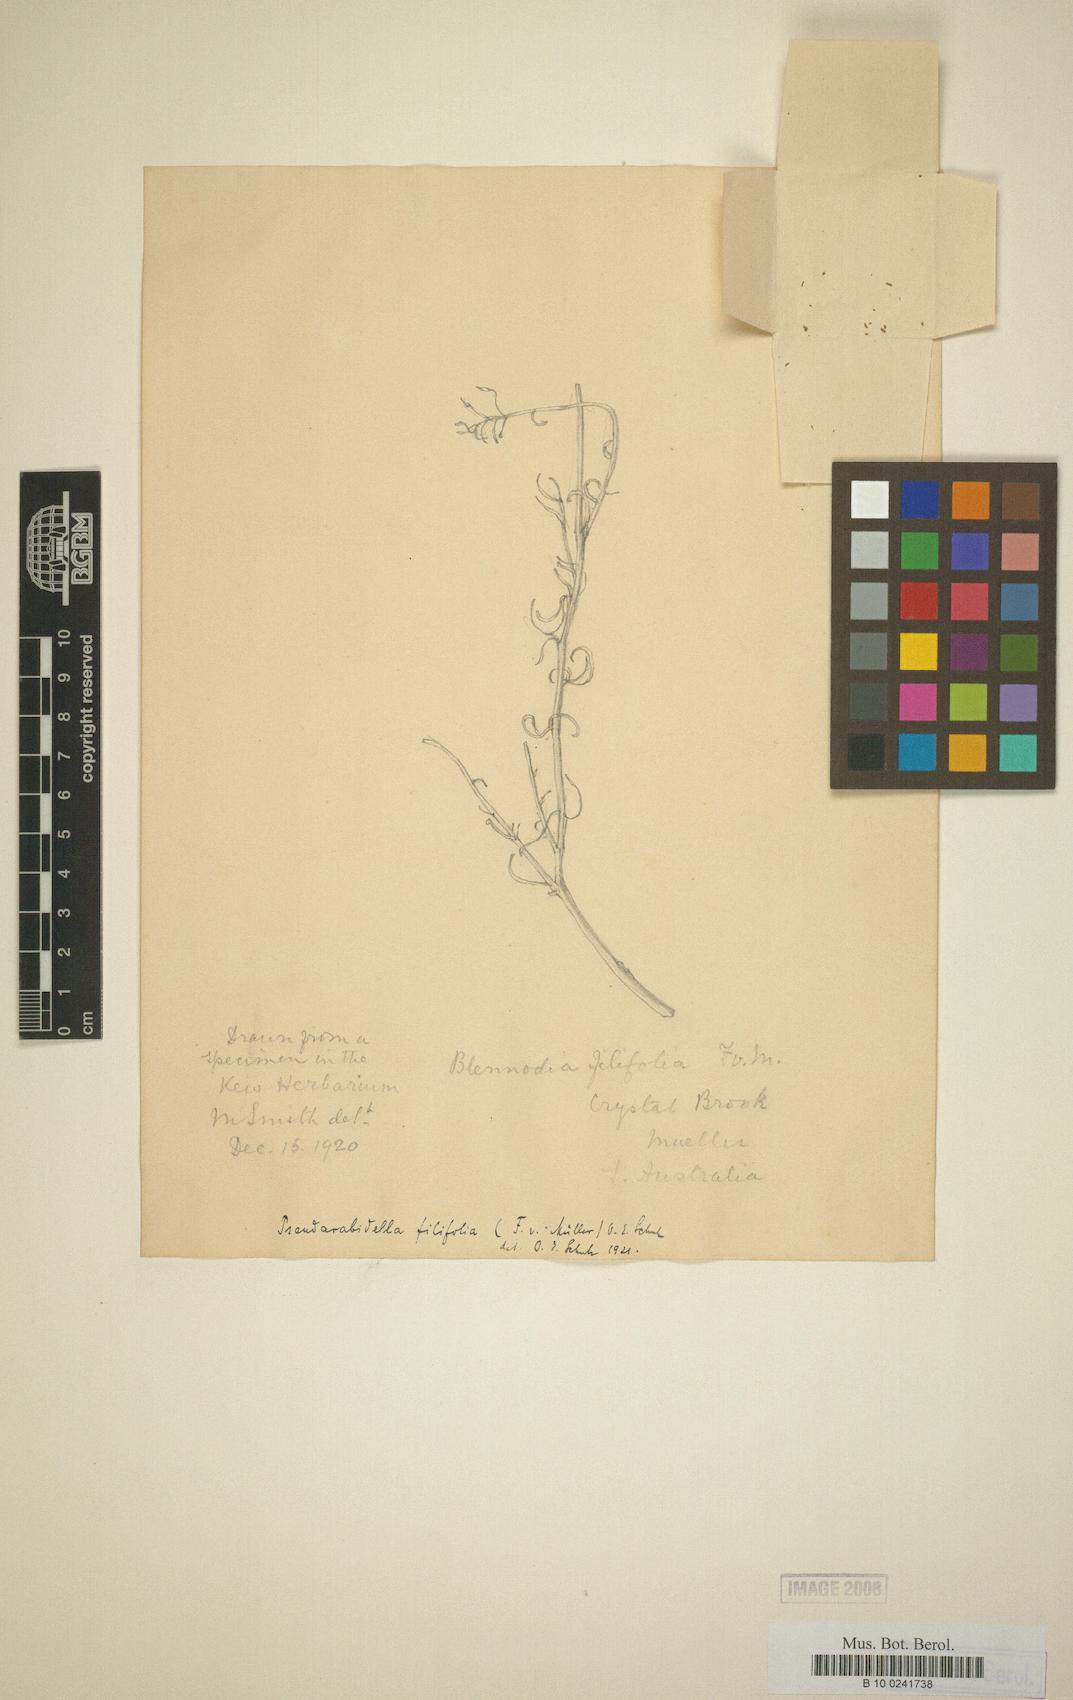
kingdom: Plantae
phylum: Tracheophyta
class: Magnoliopsida
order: Brassicales
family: Brassicaceae
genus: Arabidella
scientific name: Arabidella filifolia
